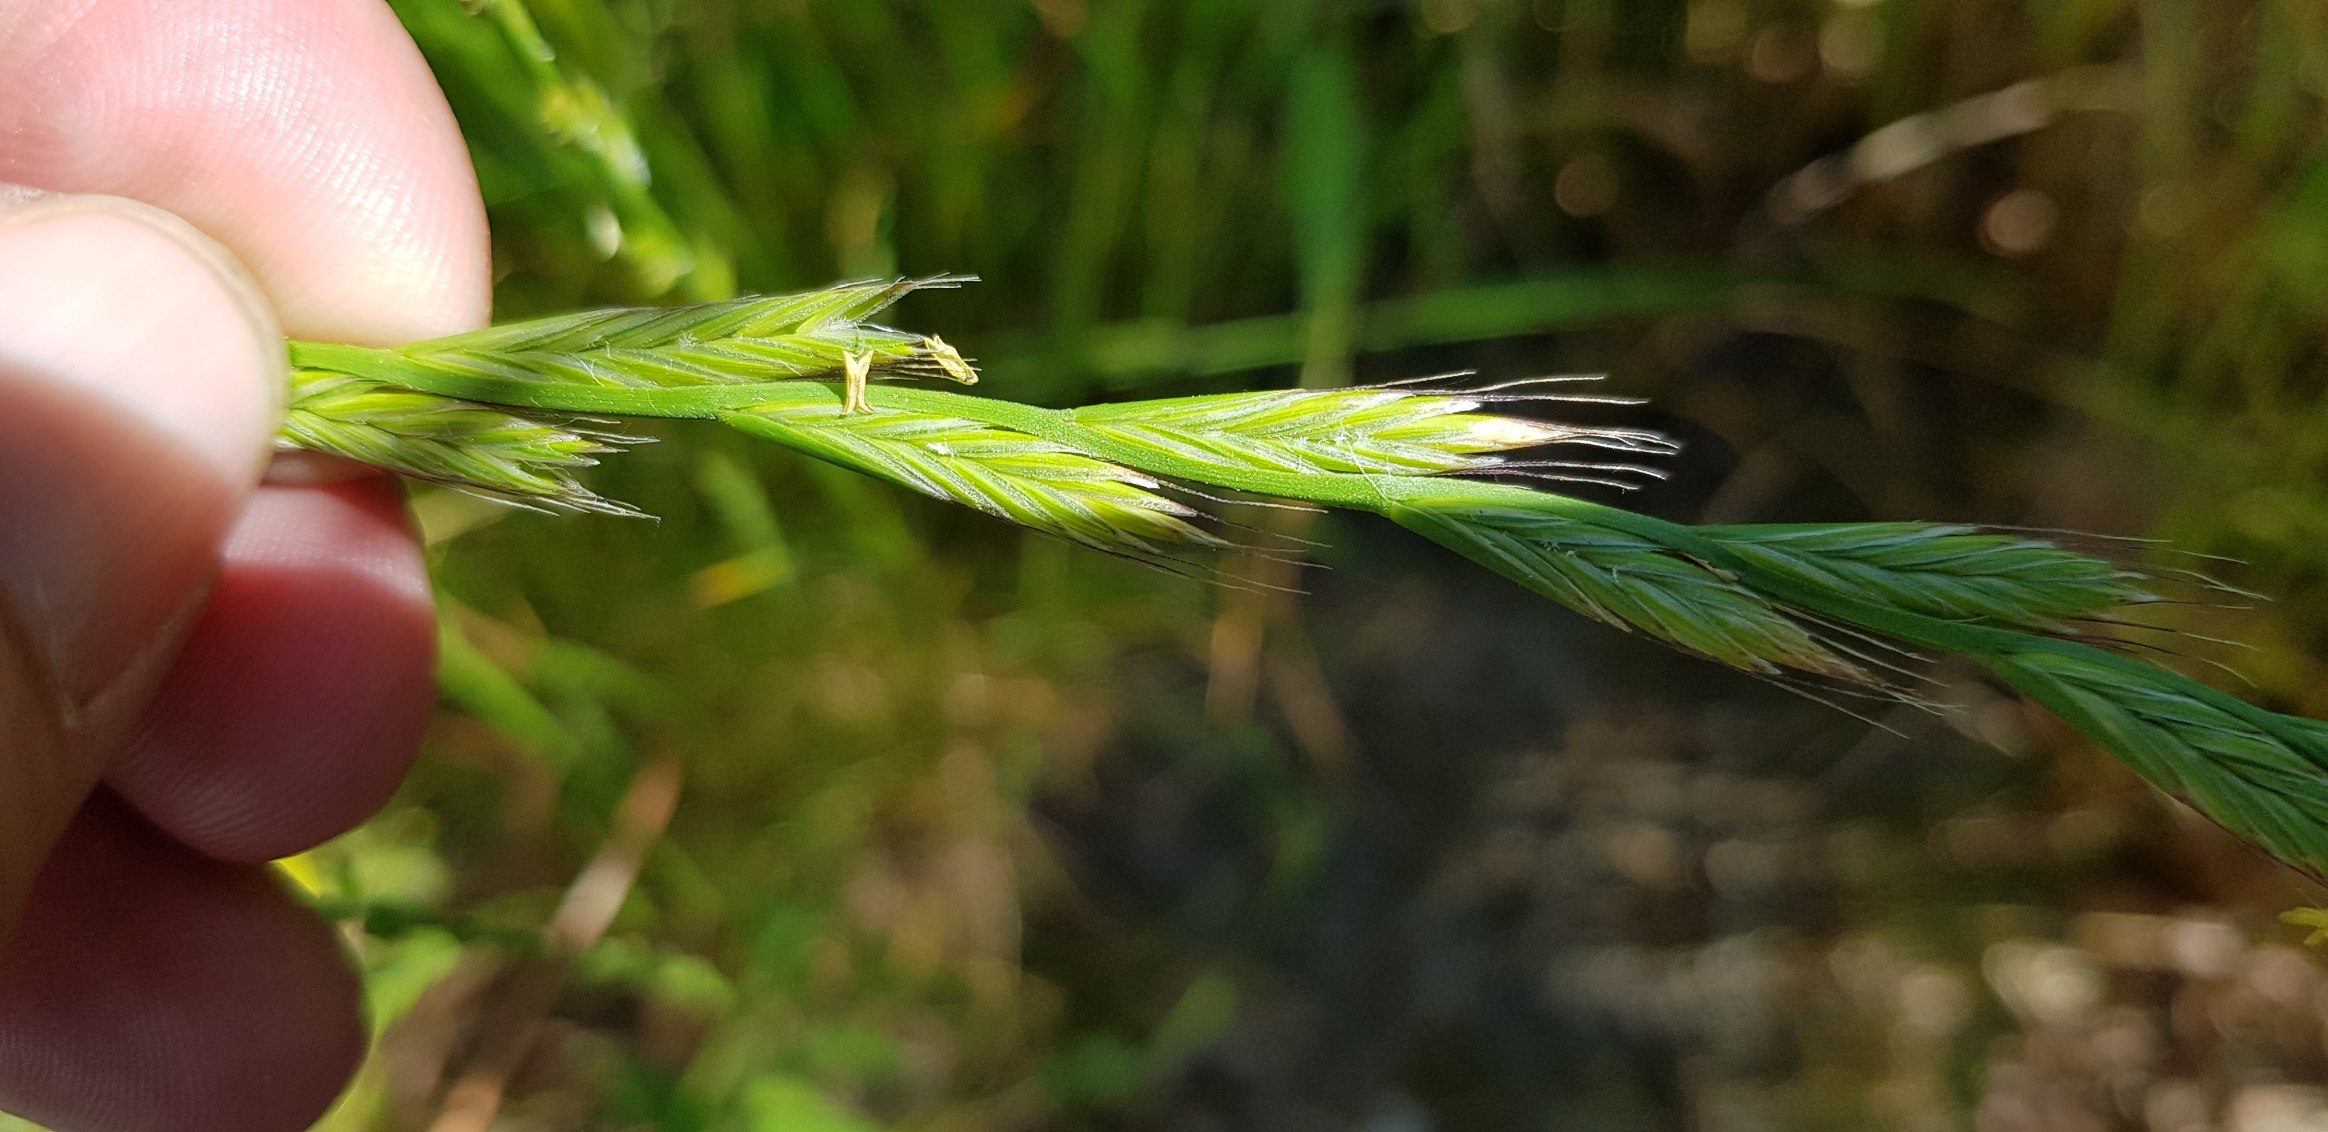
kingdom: Plantae
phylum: Tracheophyta
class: Liliopsida
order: Poales
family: Poaceae
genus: Lolium
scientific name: Lolium multiflorum
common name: Italiensk rajgræs
